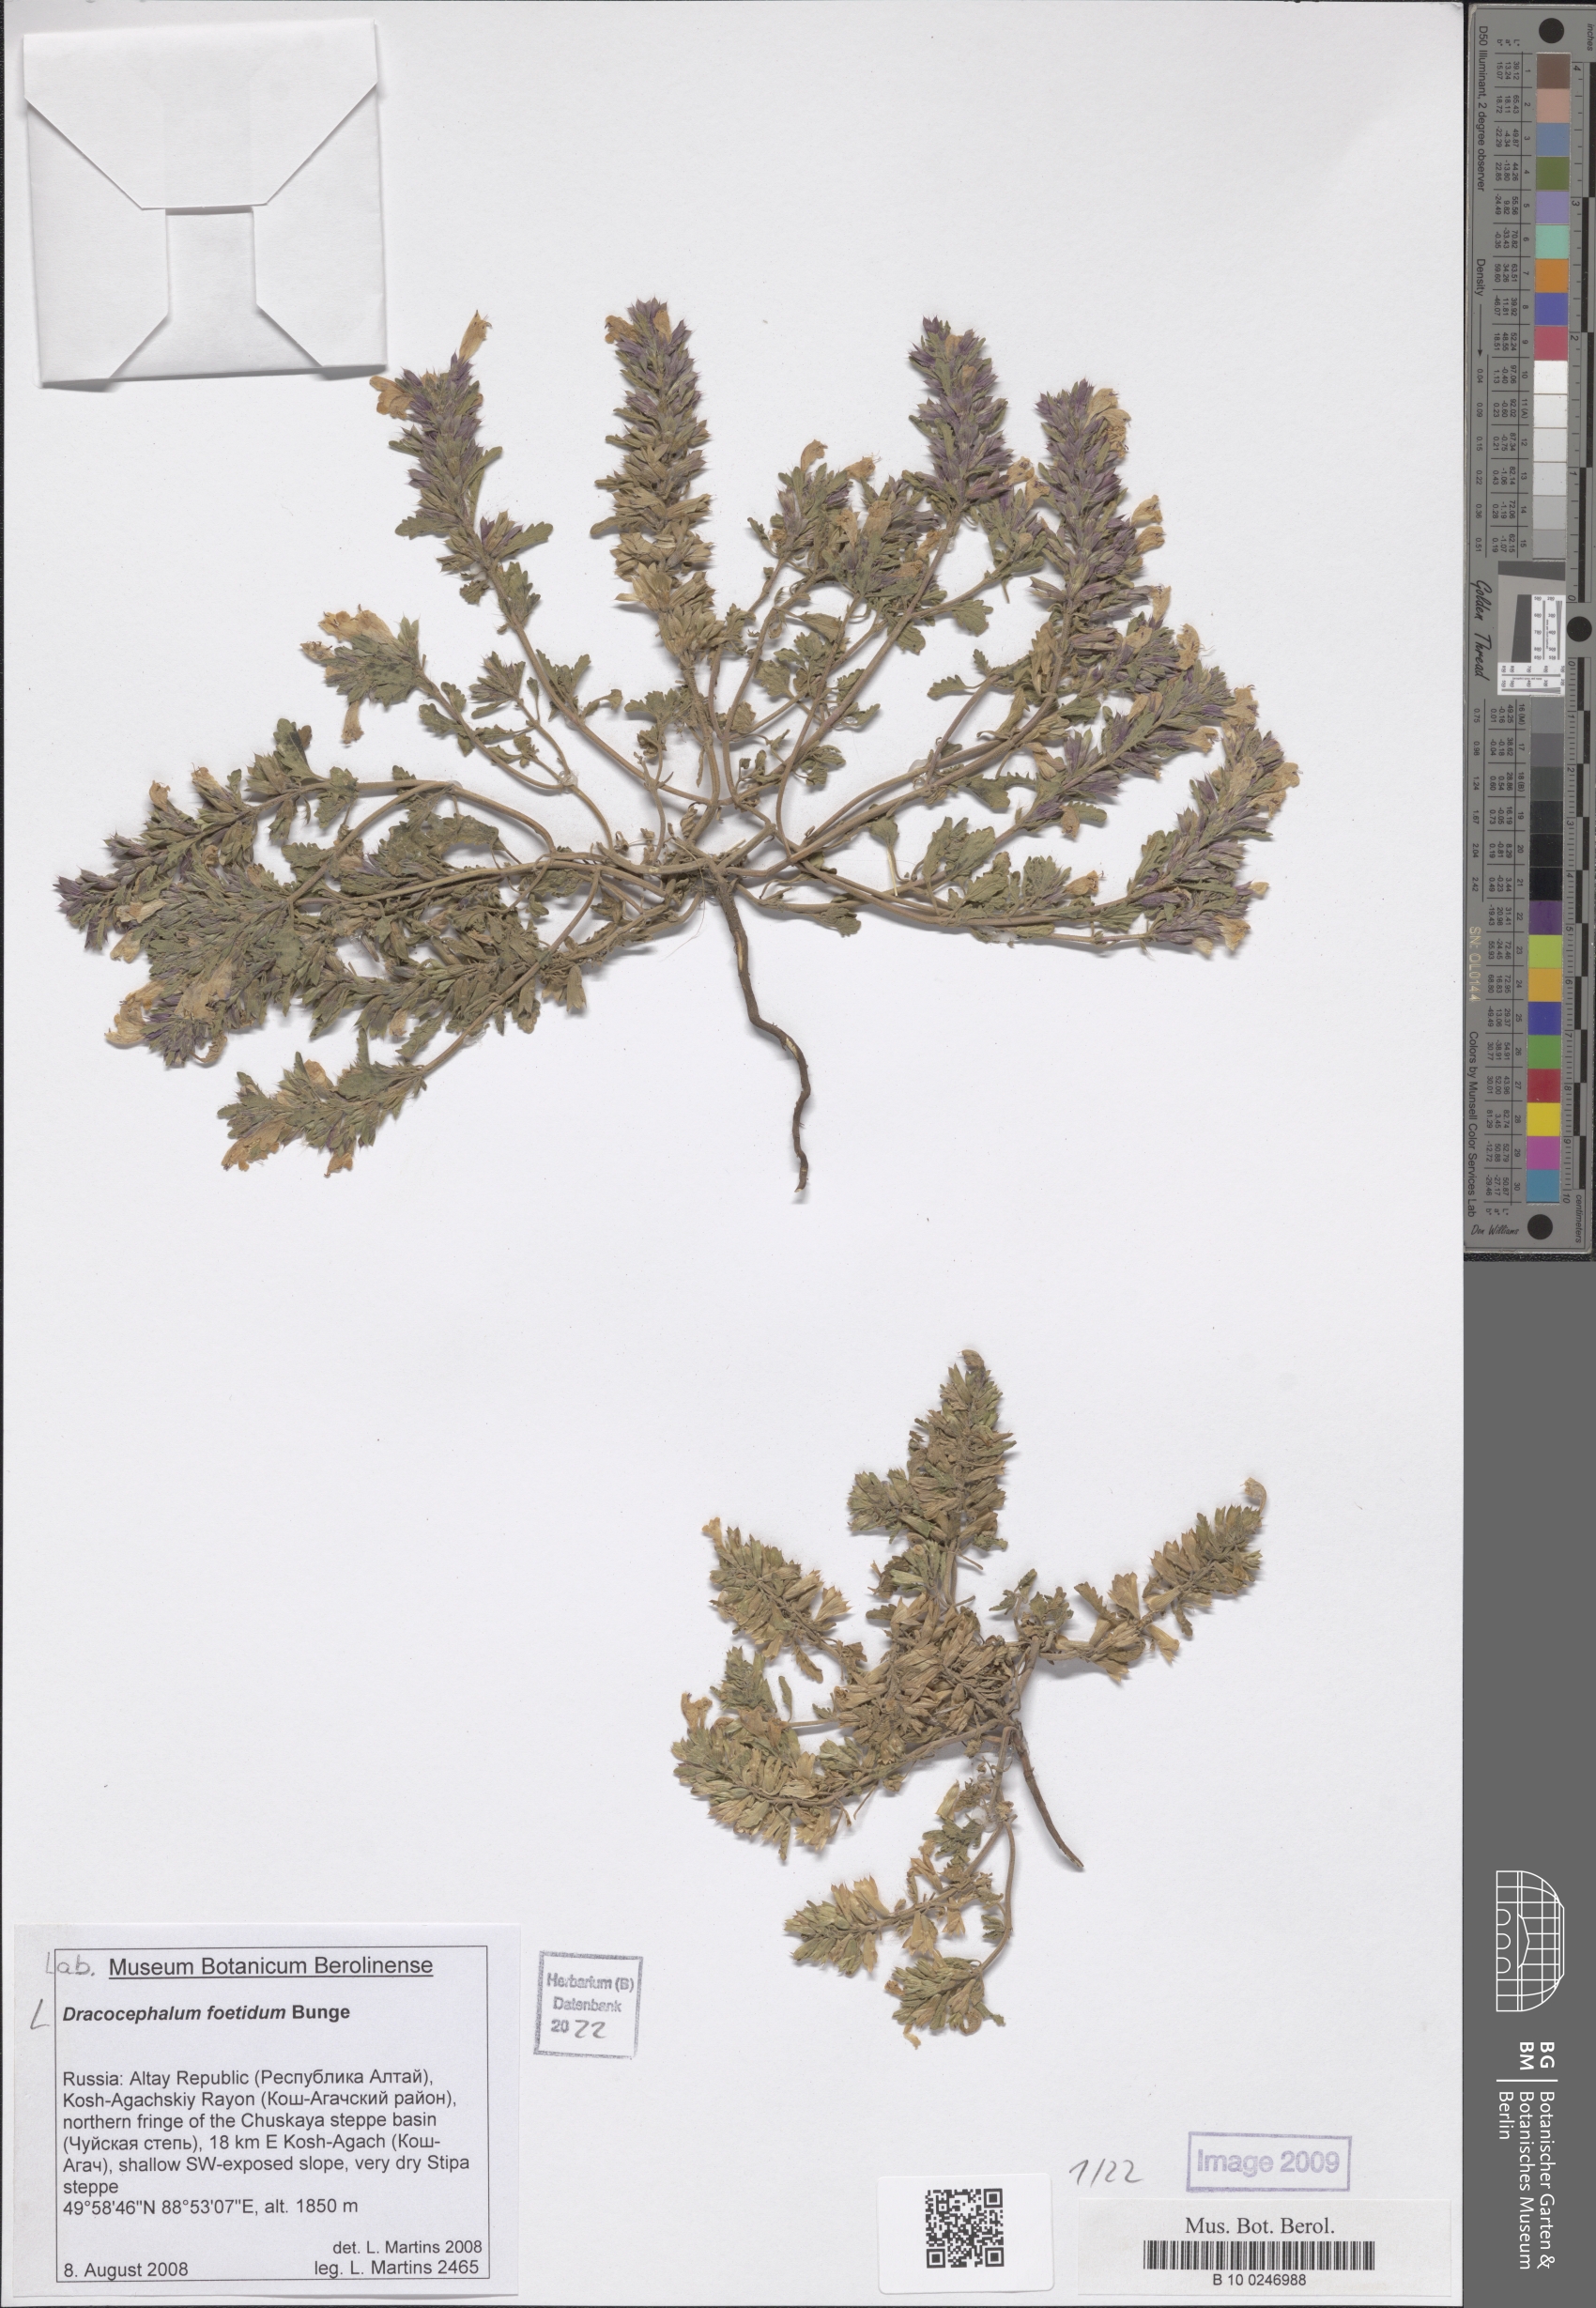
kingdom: Plantae
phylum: Tracheophyta
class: Magnoliopsida
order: Lamiales
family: Lamiaceae
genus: Dracocephalum
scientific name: Dracocephalum foetidum
